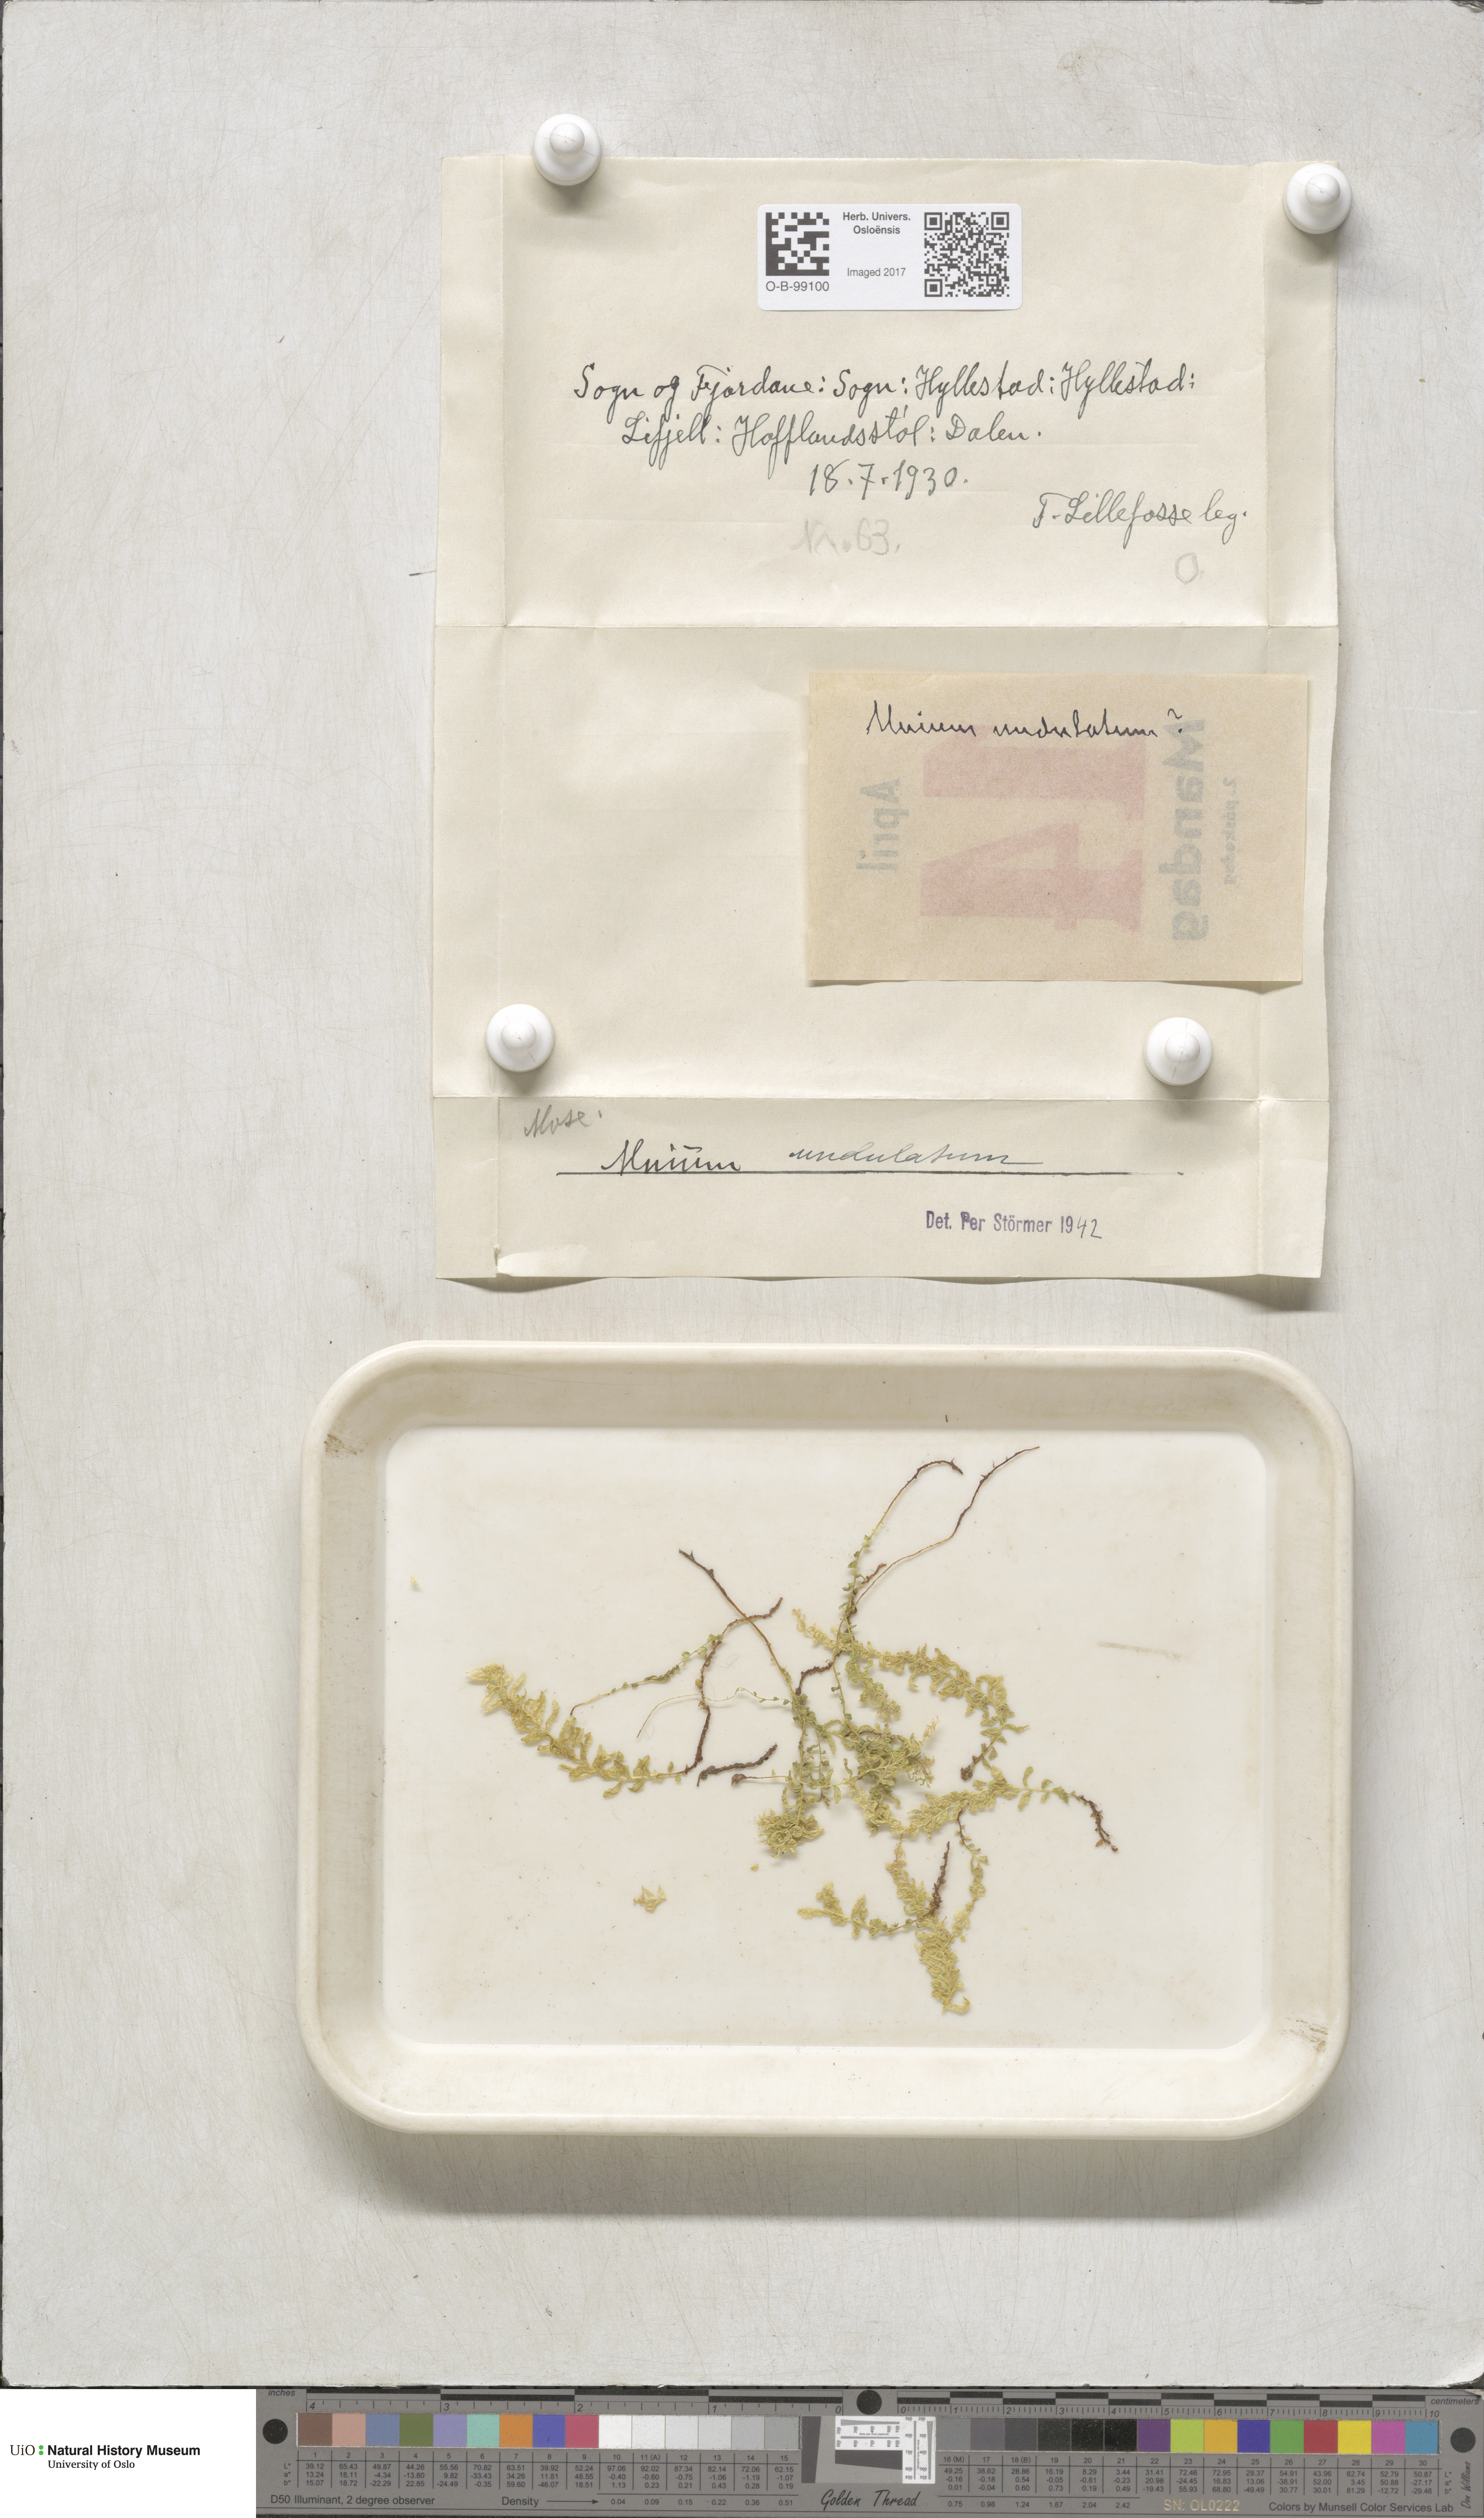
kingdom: Plantae
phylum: Bryophyta
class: Bryopsida
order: Bryales
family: Mniaceae
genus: Plagiomnium
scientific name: Plagiomnium undulatum
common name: Hart's-tongue thyme-moss
